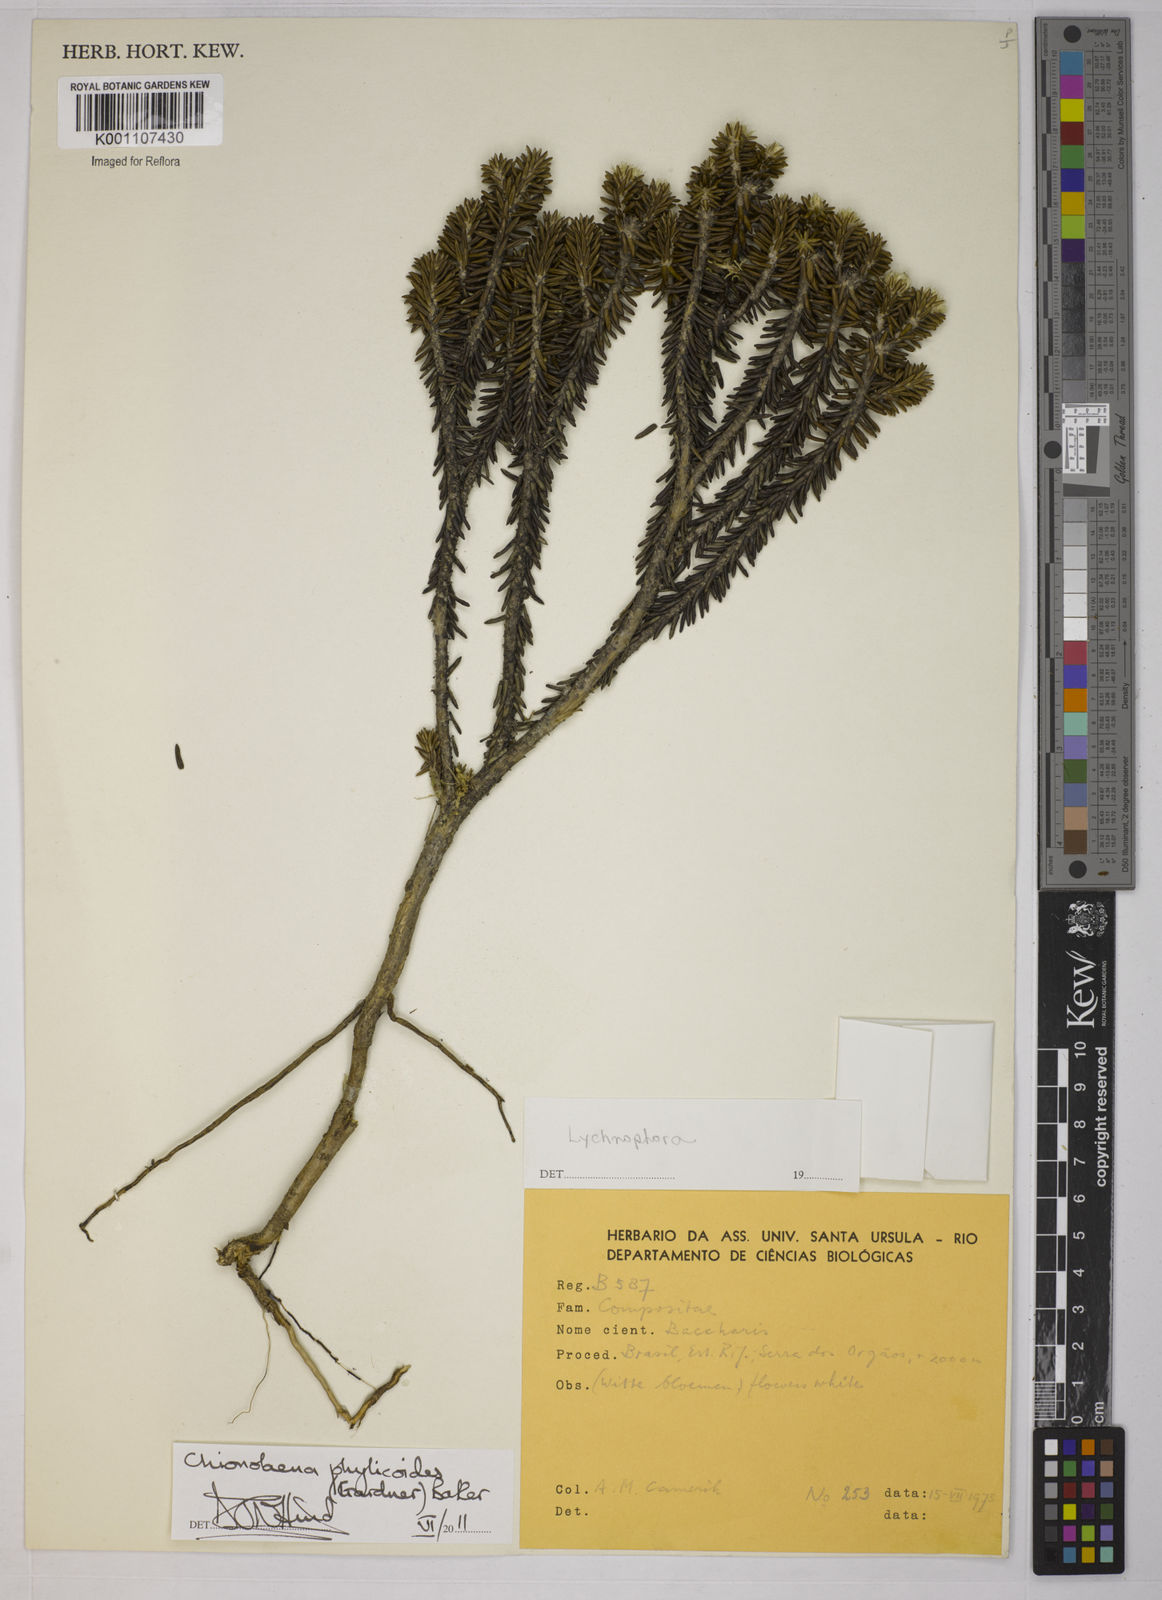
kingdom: Plantae
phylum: Tracheophyta
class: Magnoliopsida
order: Asterales
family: Asteraceae
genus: Chionolaena
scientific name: Chionolaena phylicoides
